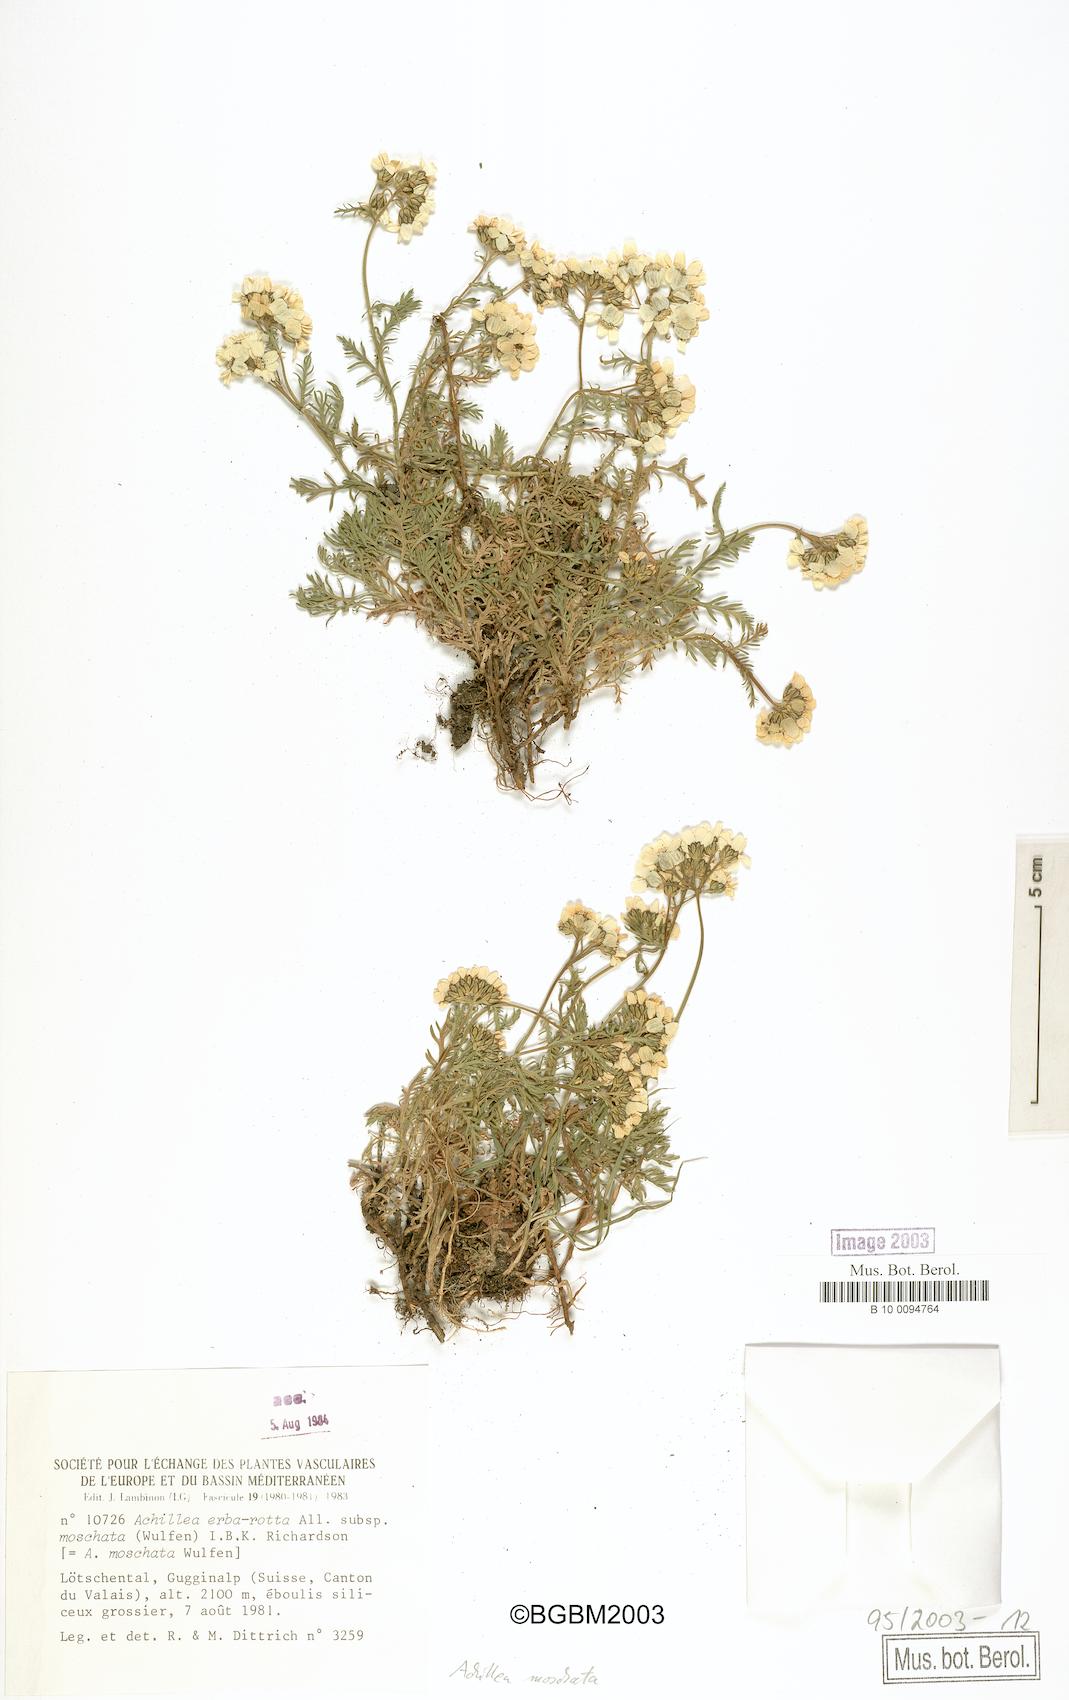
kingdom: Plantae
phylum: Tracheophyta
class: Magnoliopsida
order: Asterales
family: Asteraceae
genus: Achillea
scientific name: Achillea erba-rotta
